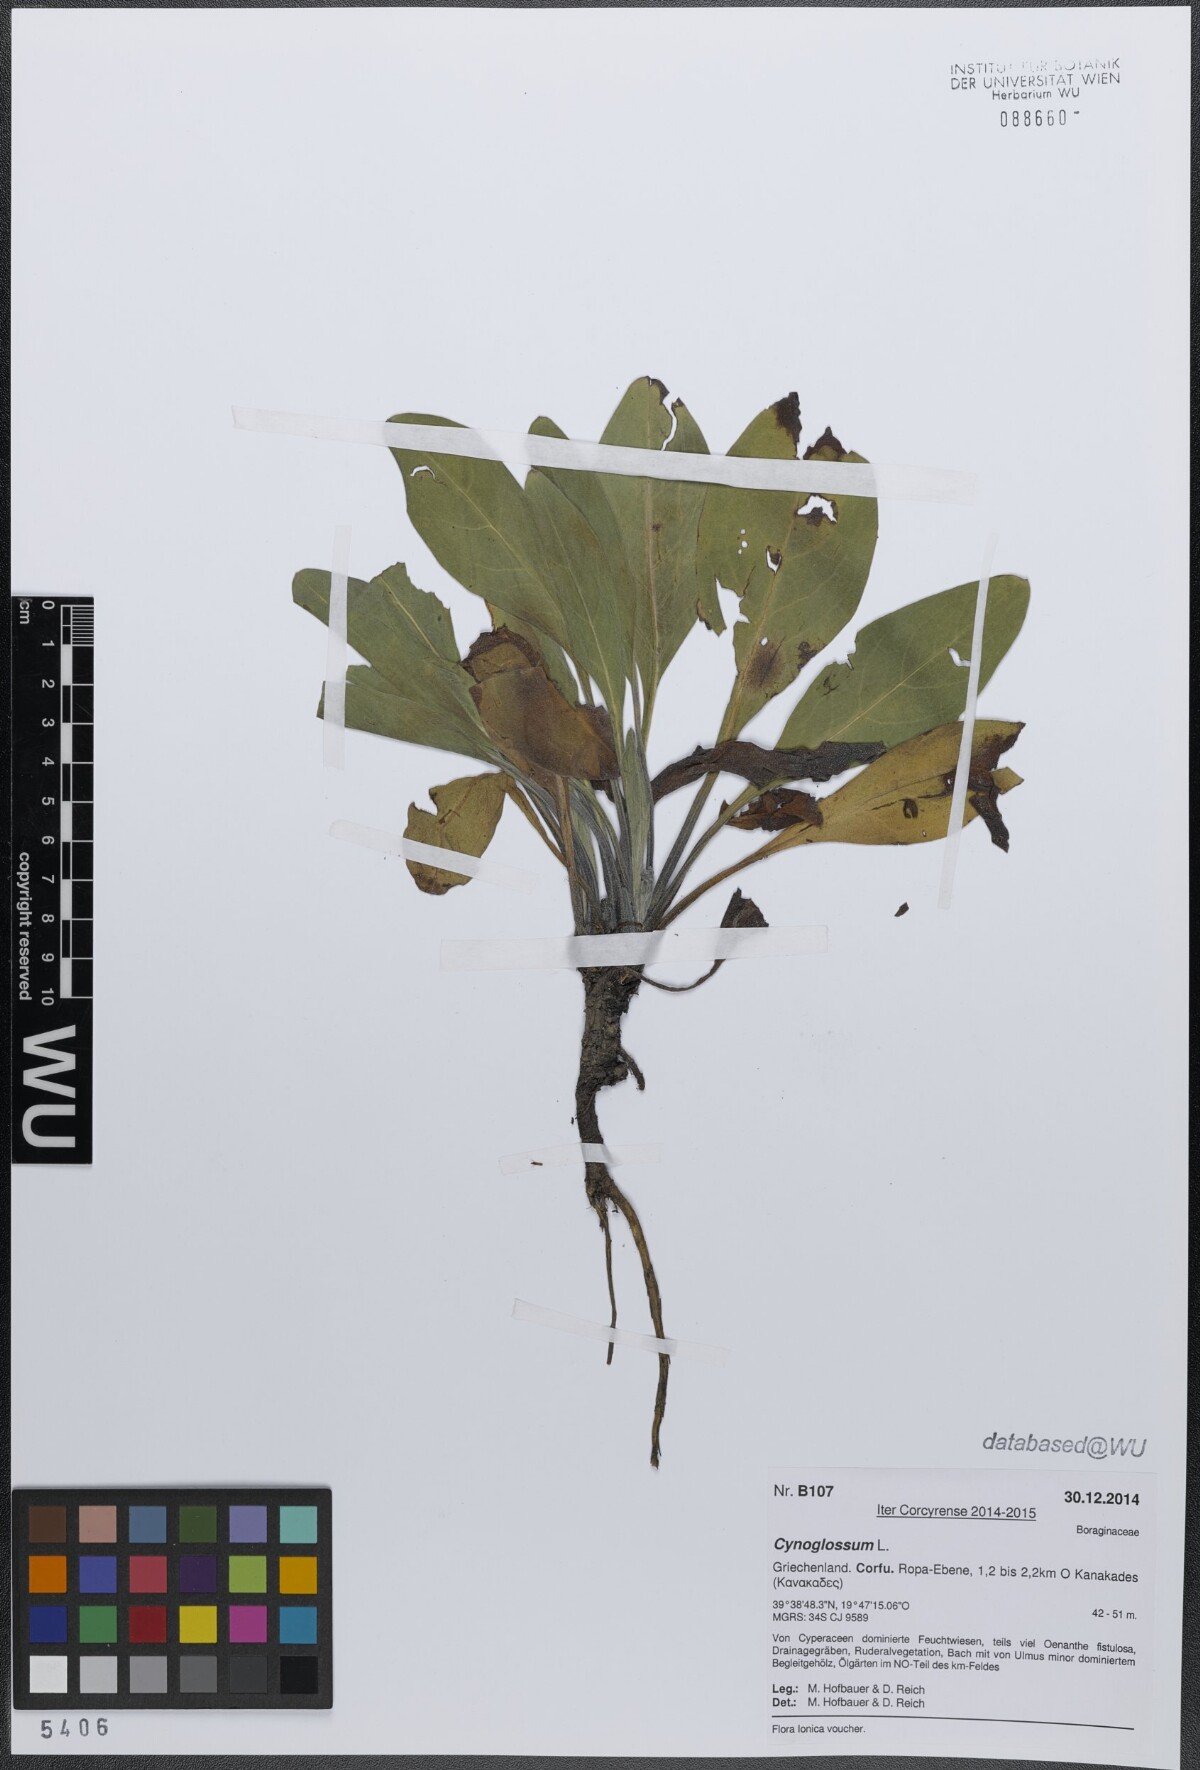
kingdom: Plantae
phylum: Tracheophyta
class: Magnoliopsida
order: Boraginales
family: Boraginaceae
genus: Cynoglossum
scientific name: Cynoglossum
